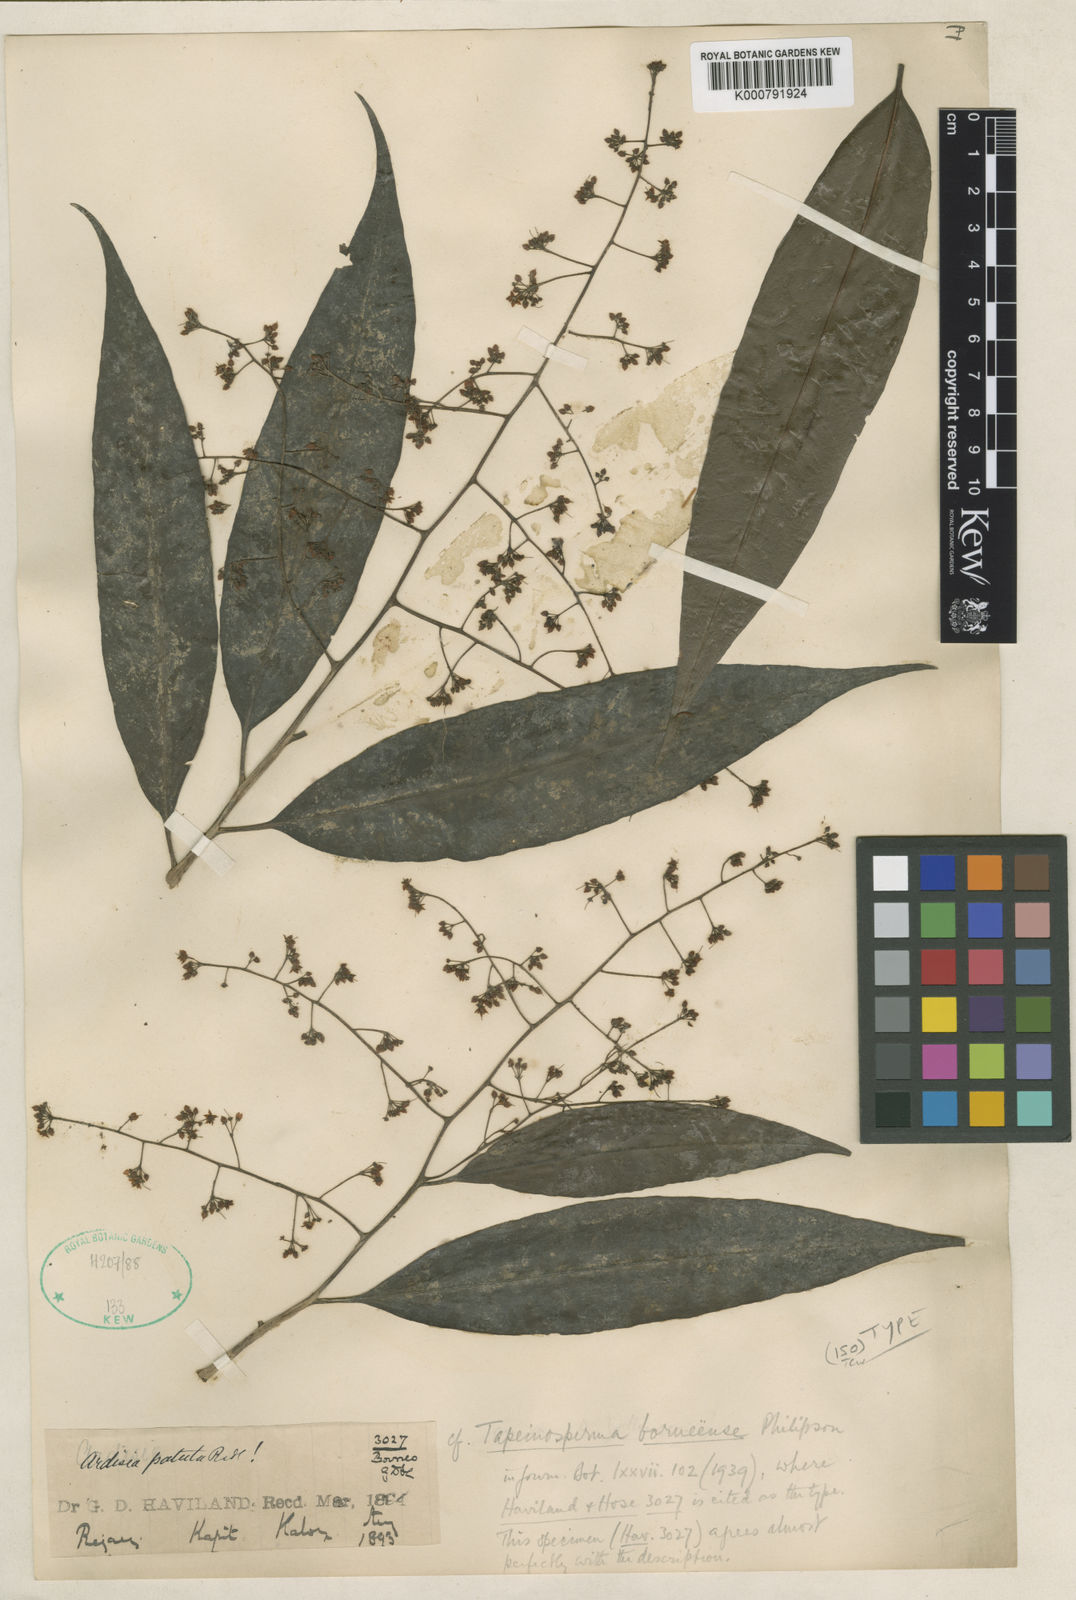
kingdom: Plantae
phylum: Tracheophyta
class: Magnoliopsida
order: Ericales
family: Primulaceae
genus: Ardisia
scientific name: Ardisia livida
